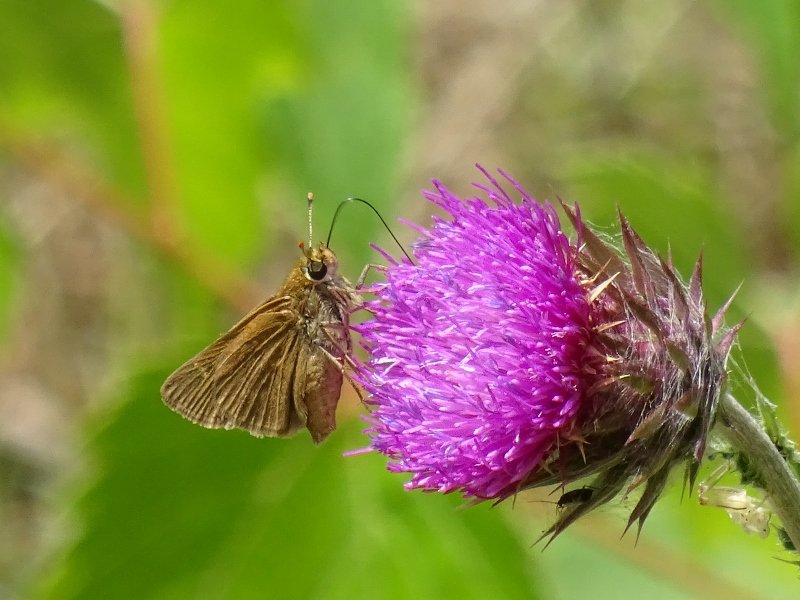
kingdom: Animalia
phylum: Arthropoda
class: Insecta
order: Lepidoptera
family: Hesperiidae
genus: Atrytone
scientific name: Atrytone delaware
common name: Delaware Skipper
